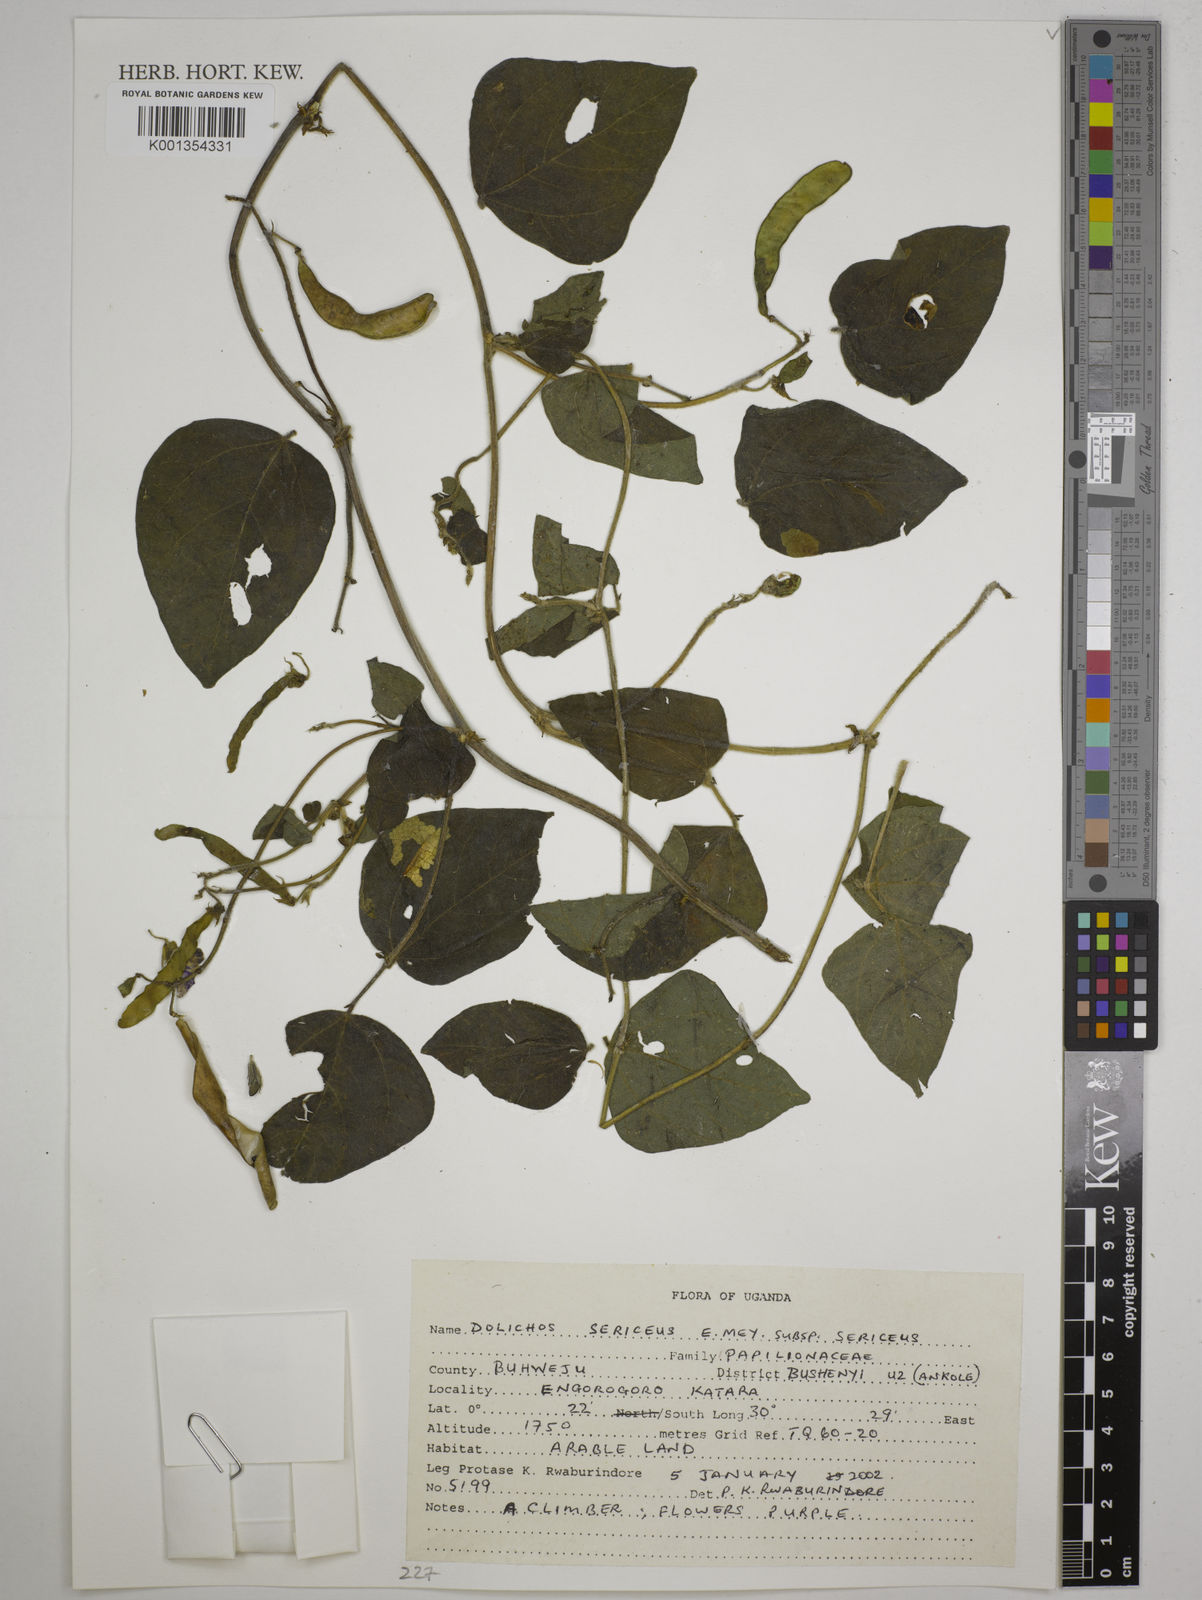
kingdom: Plantae
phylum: Tracheophyta
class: Magnoliopsida
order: Fabales
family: Fabaceae
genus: Dolichos
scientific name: Dolichos
